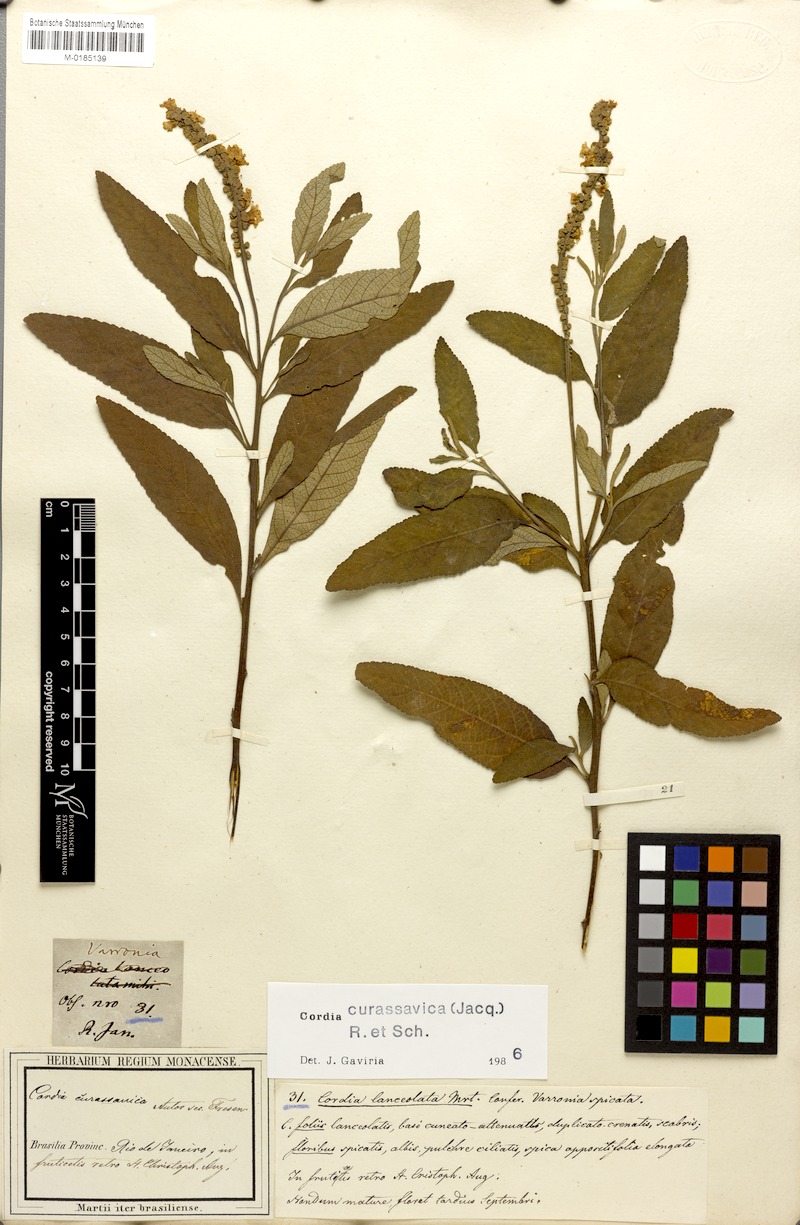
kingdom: Plantae
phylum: Tracheophyta
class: Magnoliopsida
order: Boraginales
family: Cordiaceae
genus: Varronia
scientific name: Varronia curassavica
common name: Black sage
